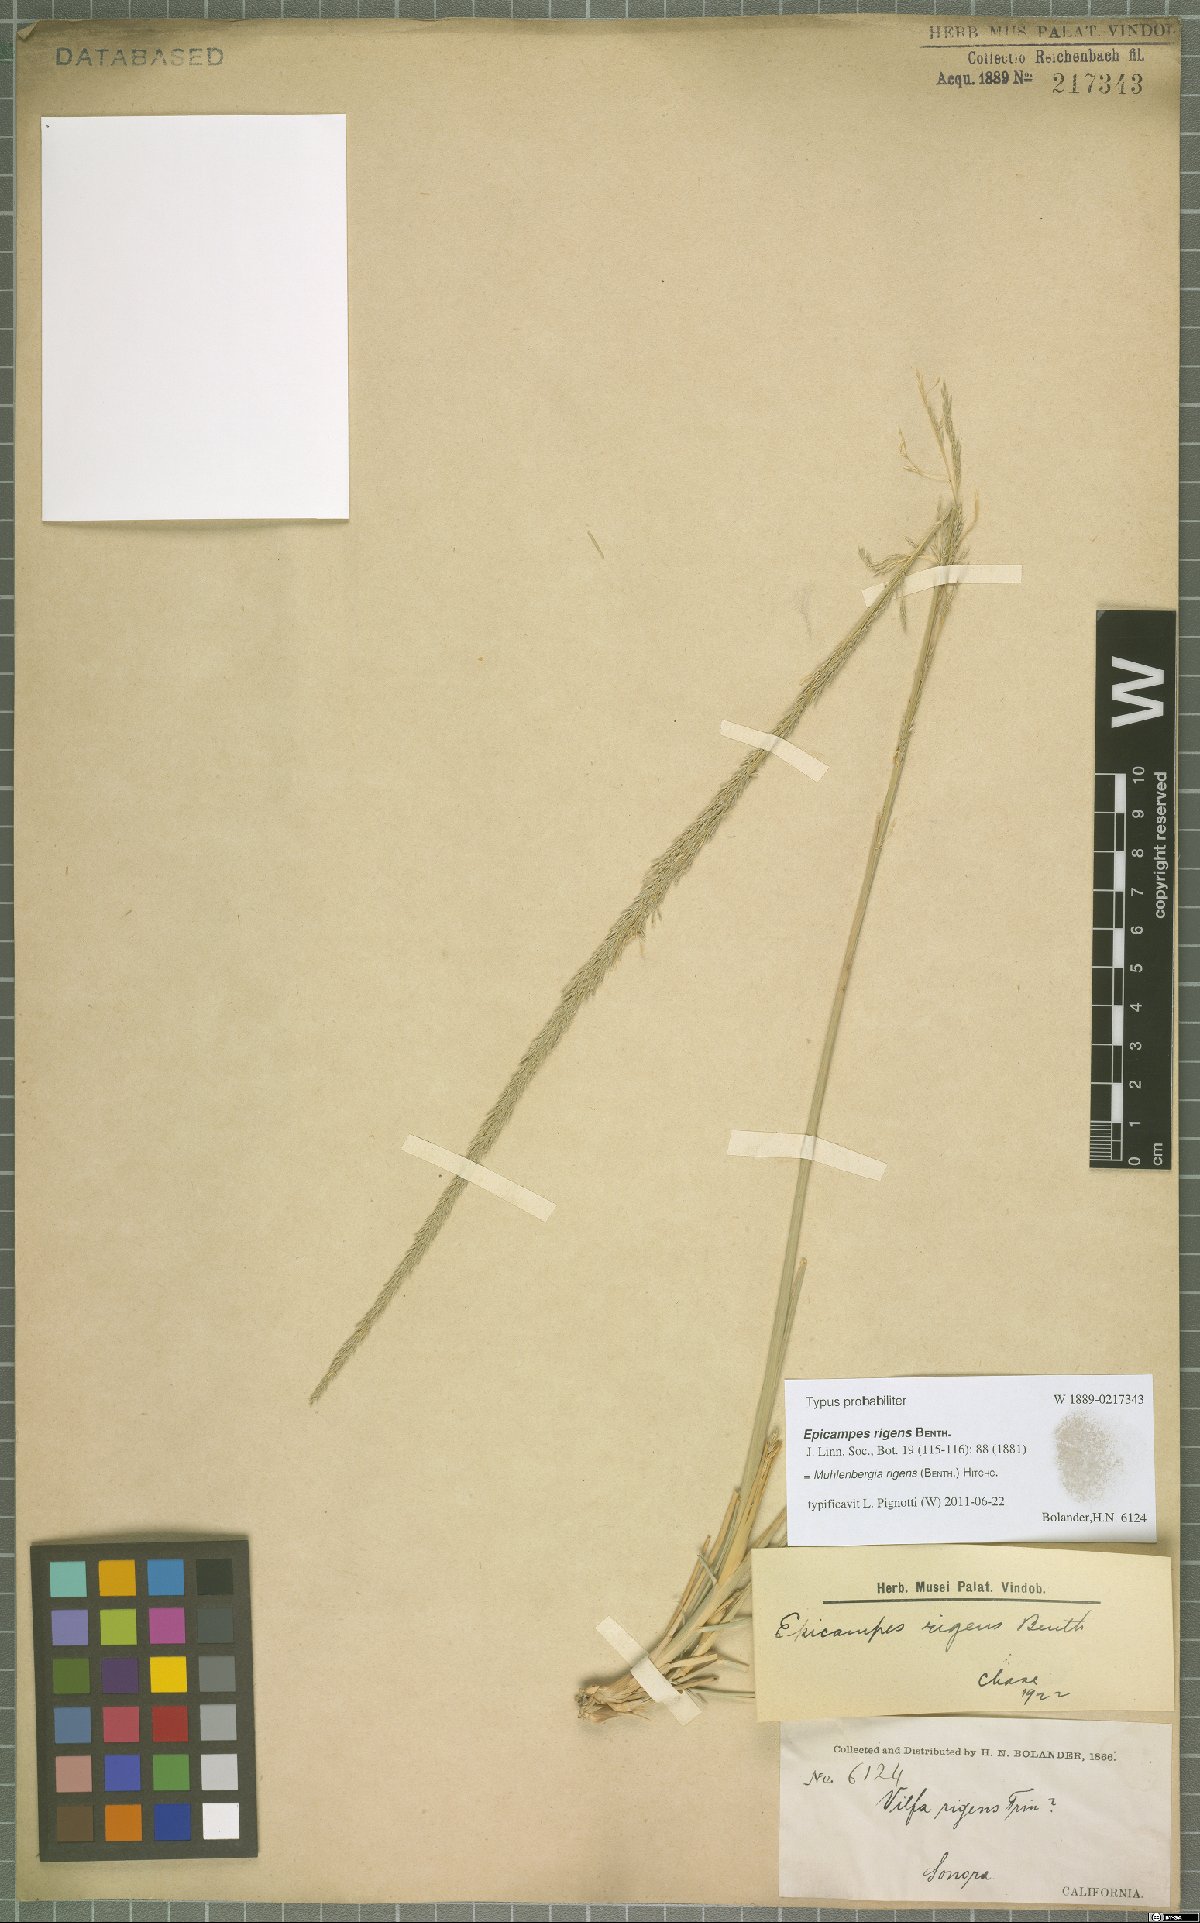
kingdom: Plantae
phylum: Tracheophyta
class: Liliopsida
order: Poales
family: Poaceae
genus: Muhlenbergia
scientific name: Muhlenbergia rigens
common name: Deer grass
